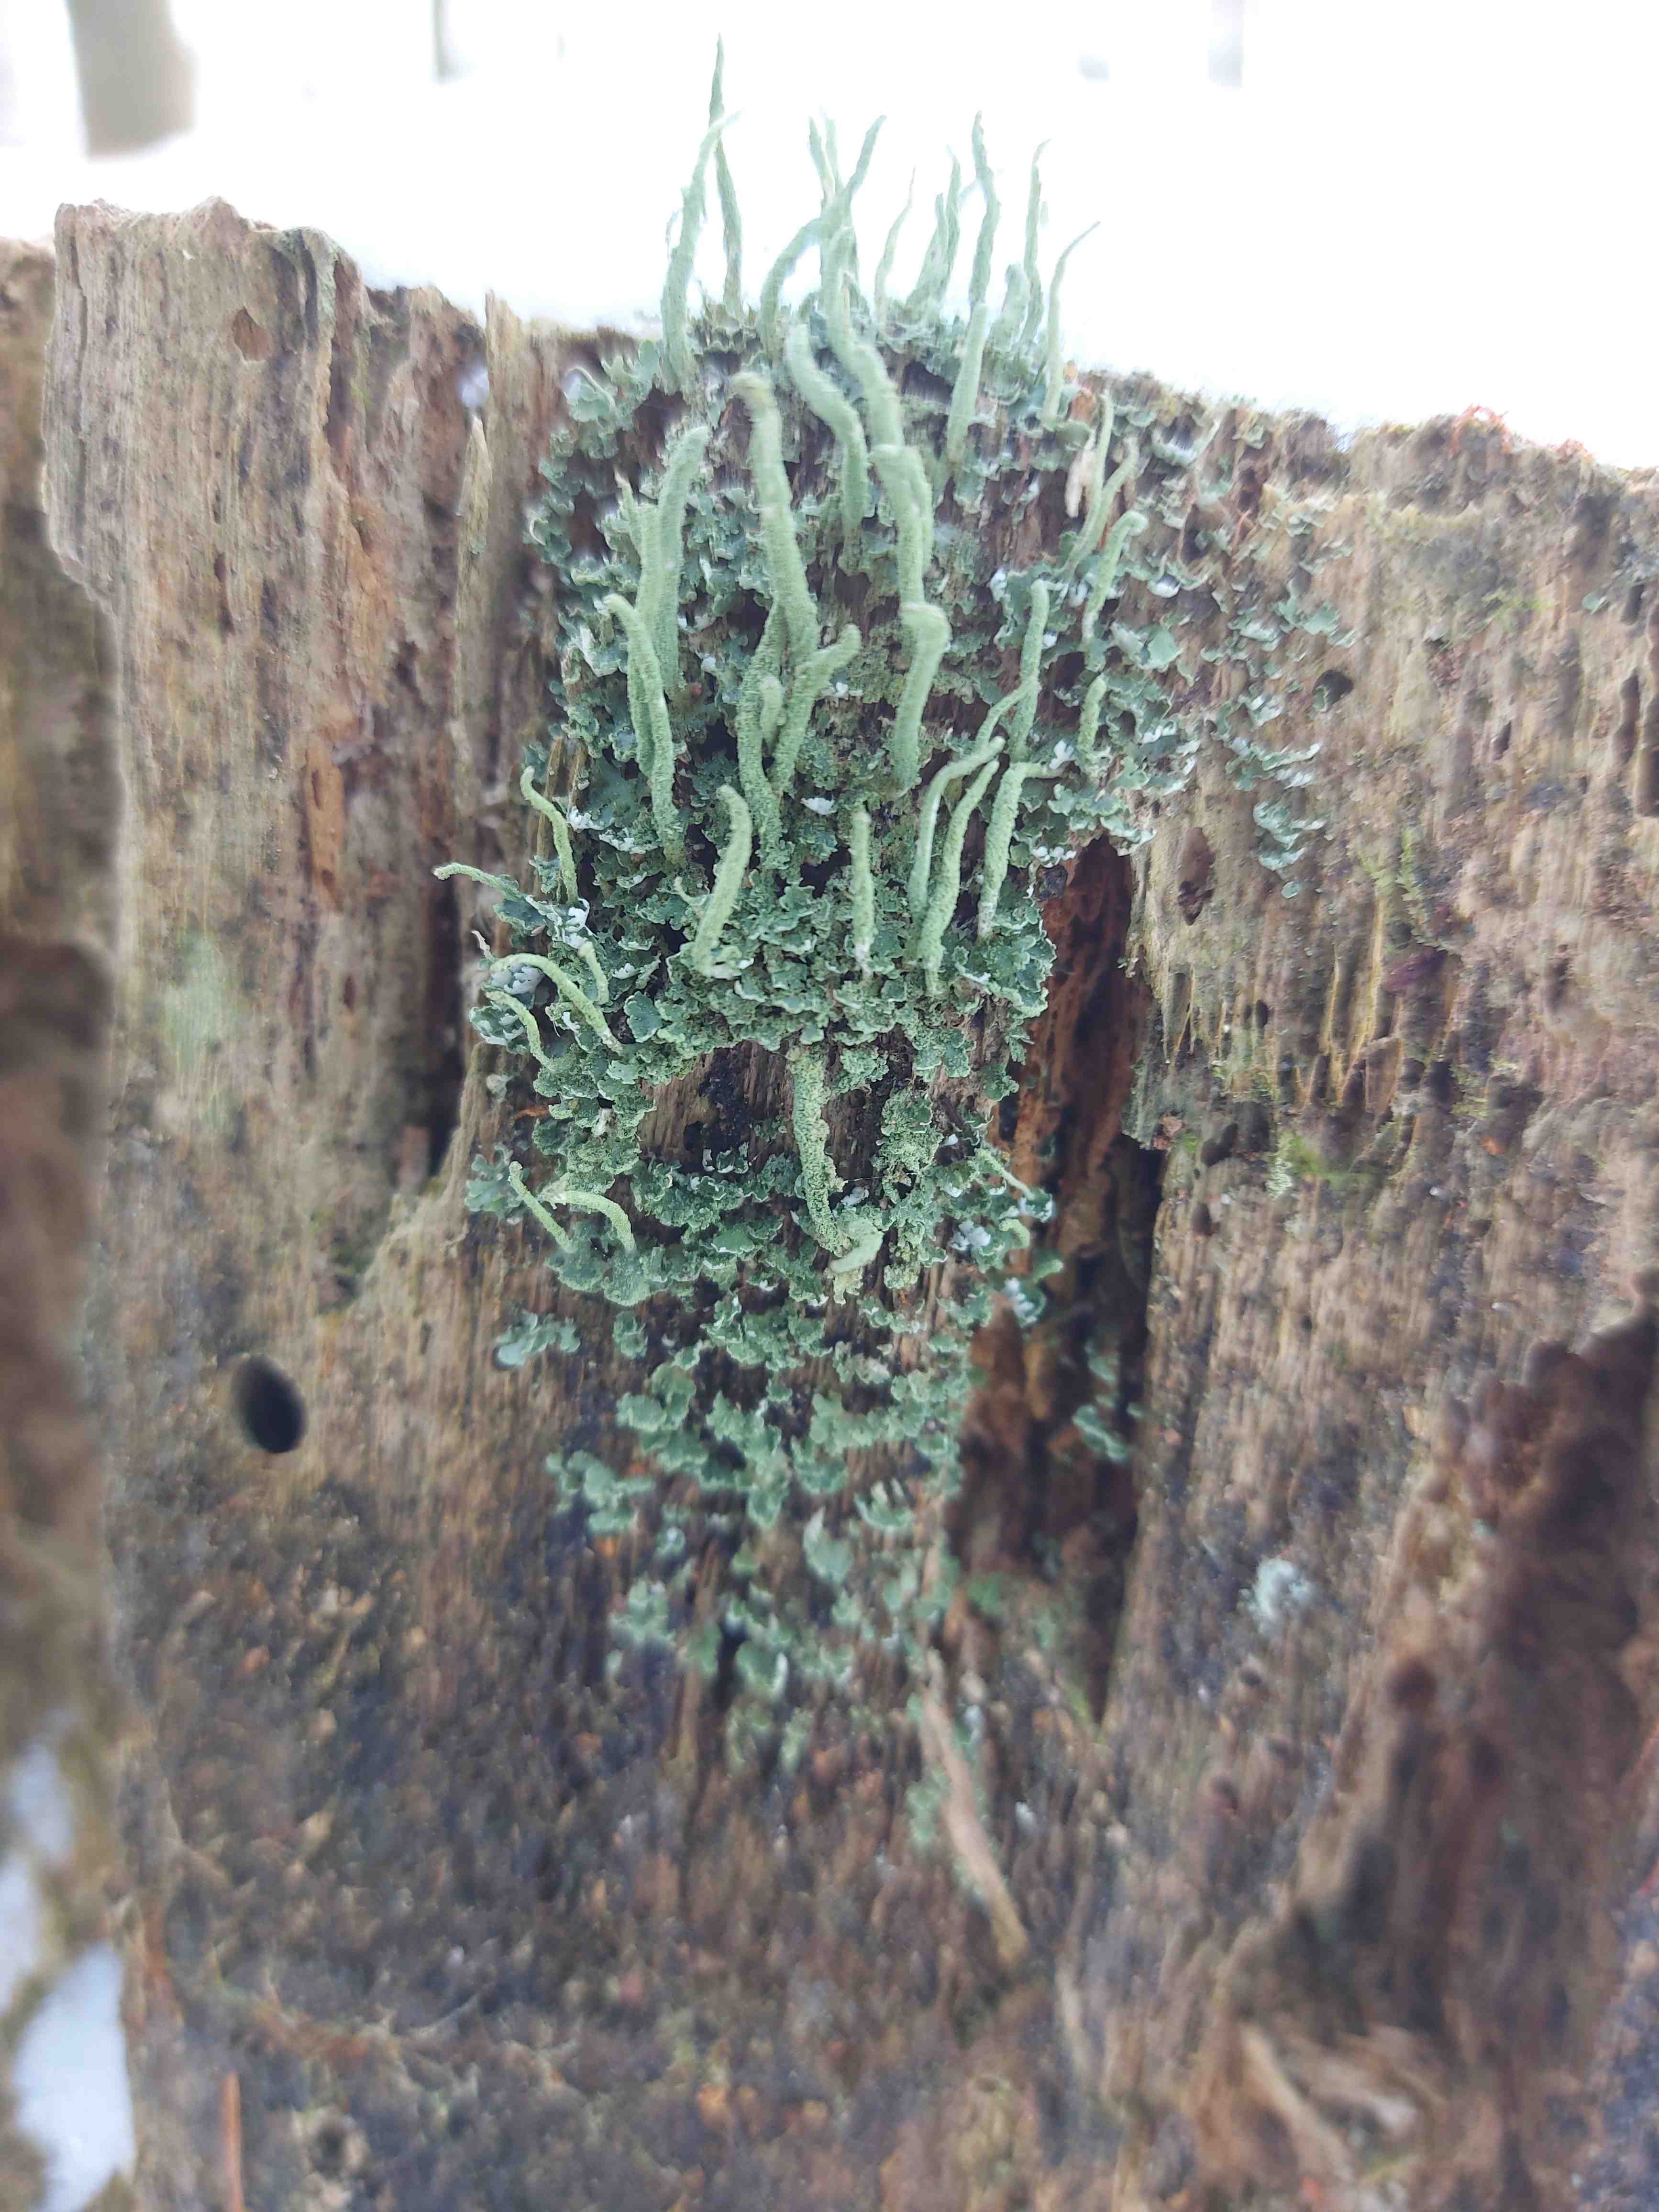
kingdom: Fungi
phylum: Ascomycota
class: Lecanoromycetes
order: Lecanorales
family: Cladoniaceae
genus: Cladonia
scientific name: Cladonia coniocraea
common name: træfods-bægerlav
